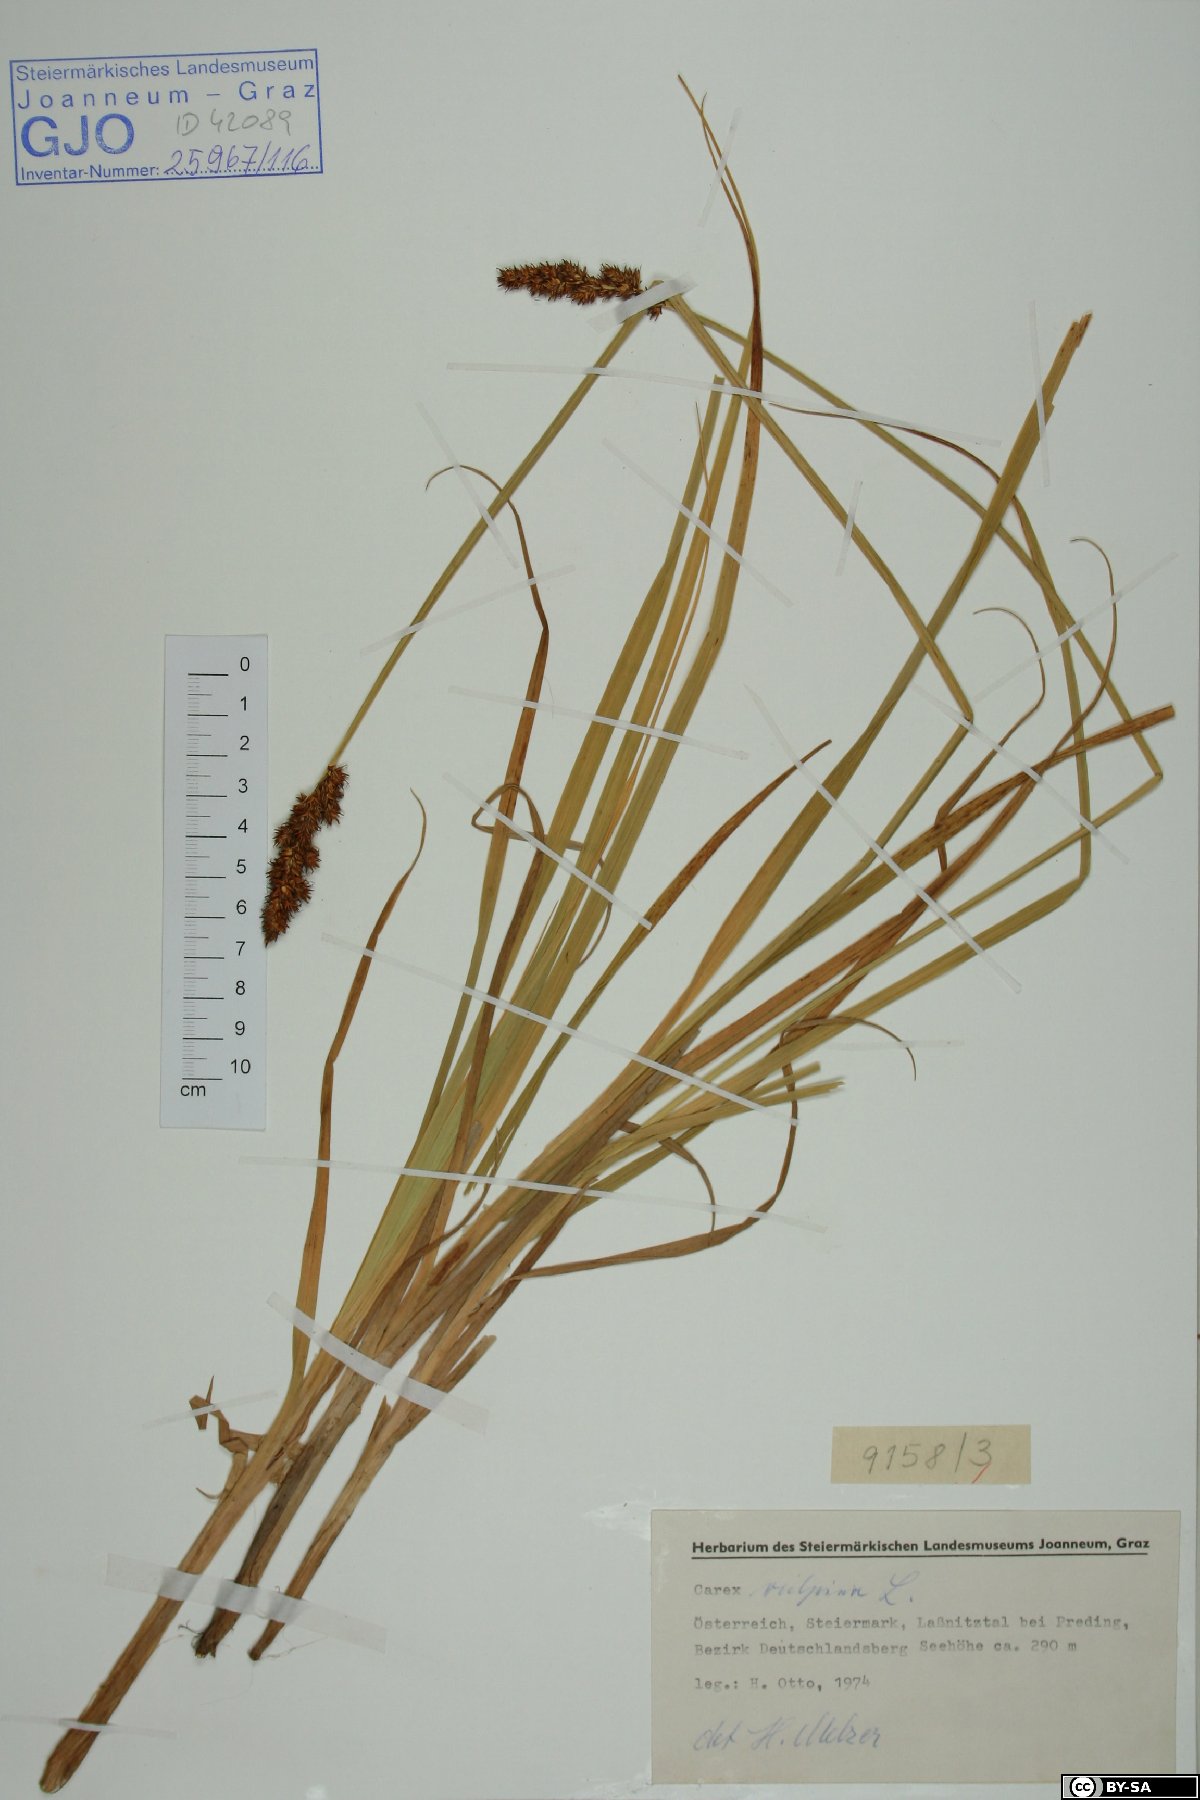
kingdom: Plantae
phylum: Tracheophyta
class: Liliopsida
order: Poales
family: Cyperaceae
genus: Carex
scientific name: Carex vulpina
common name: True fox-sedge
